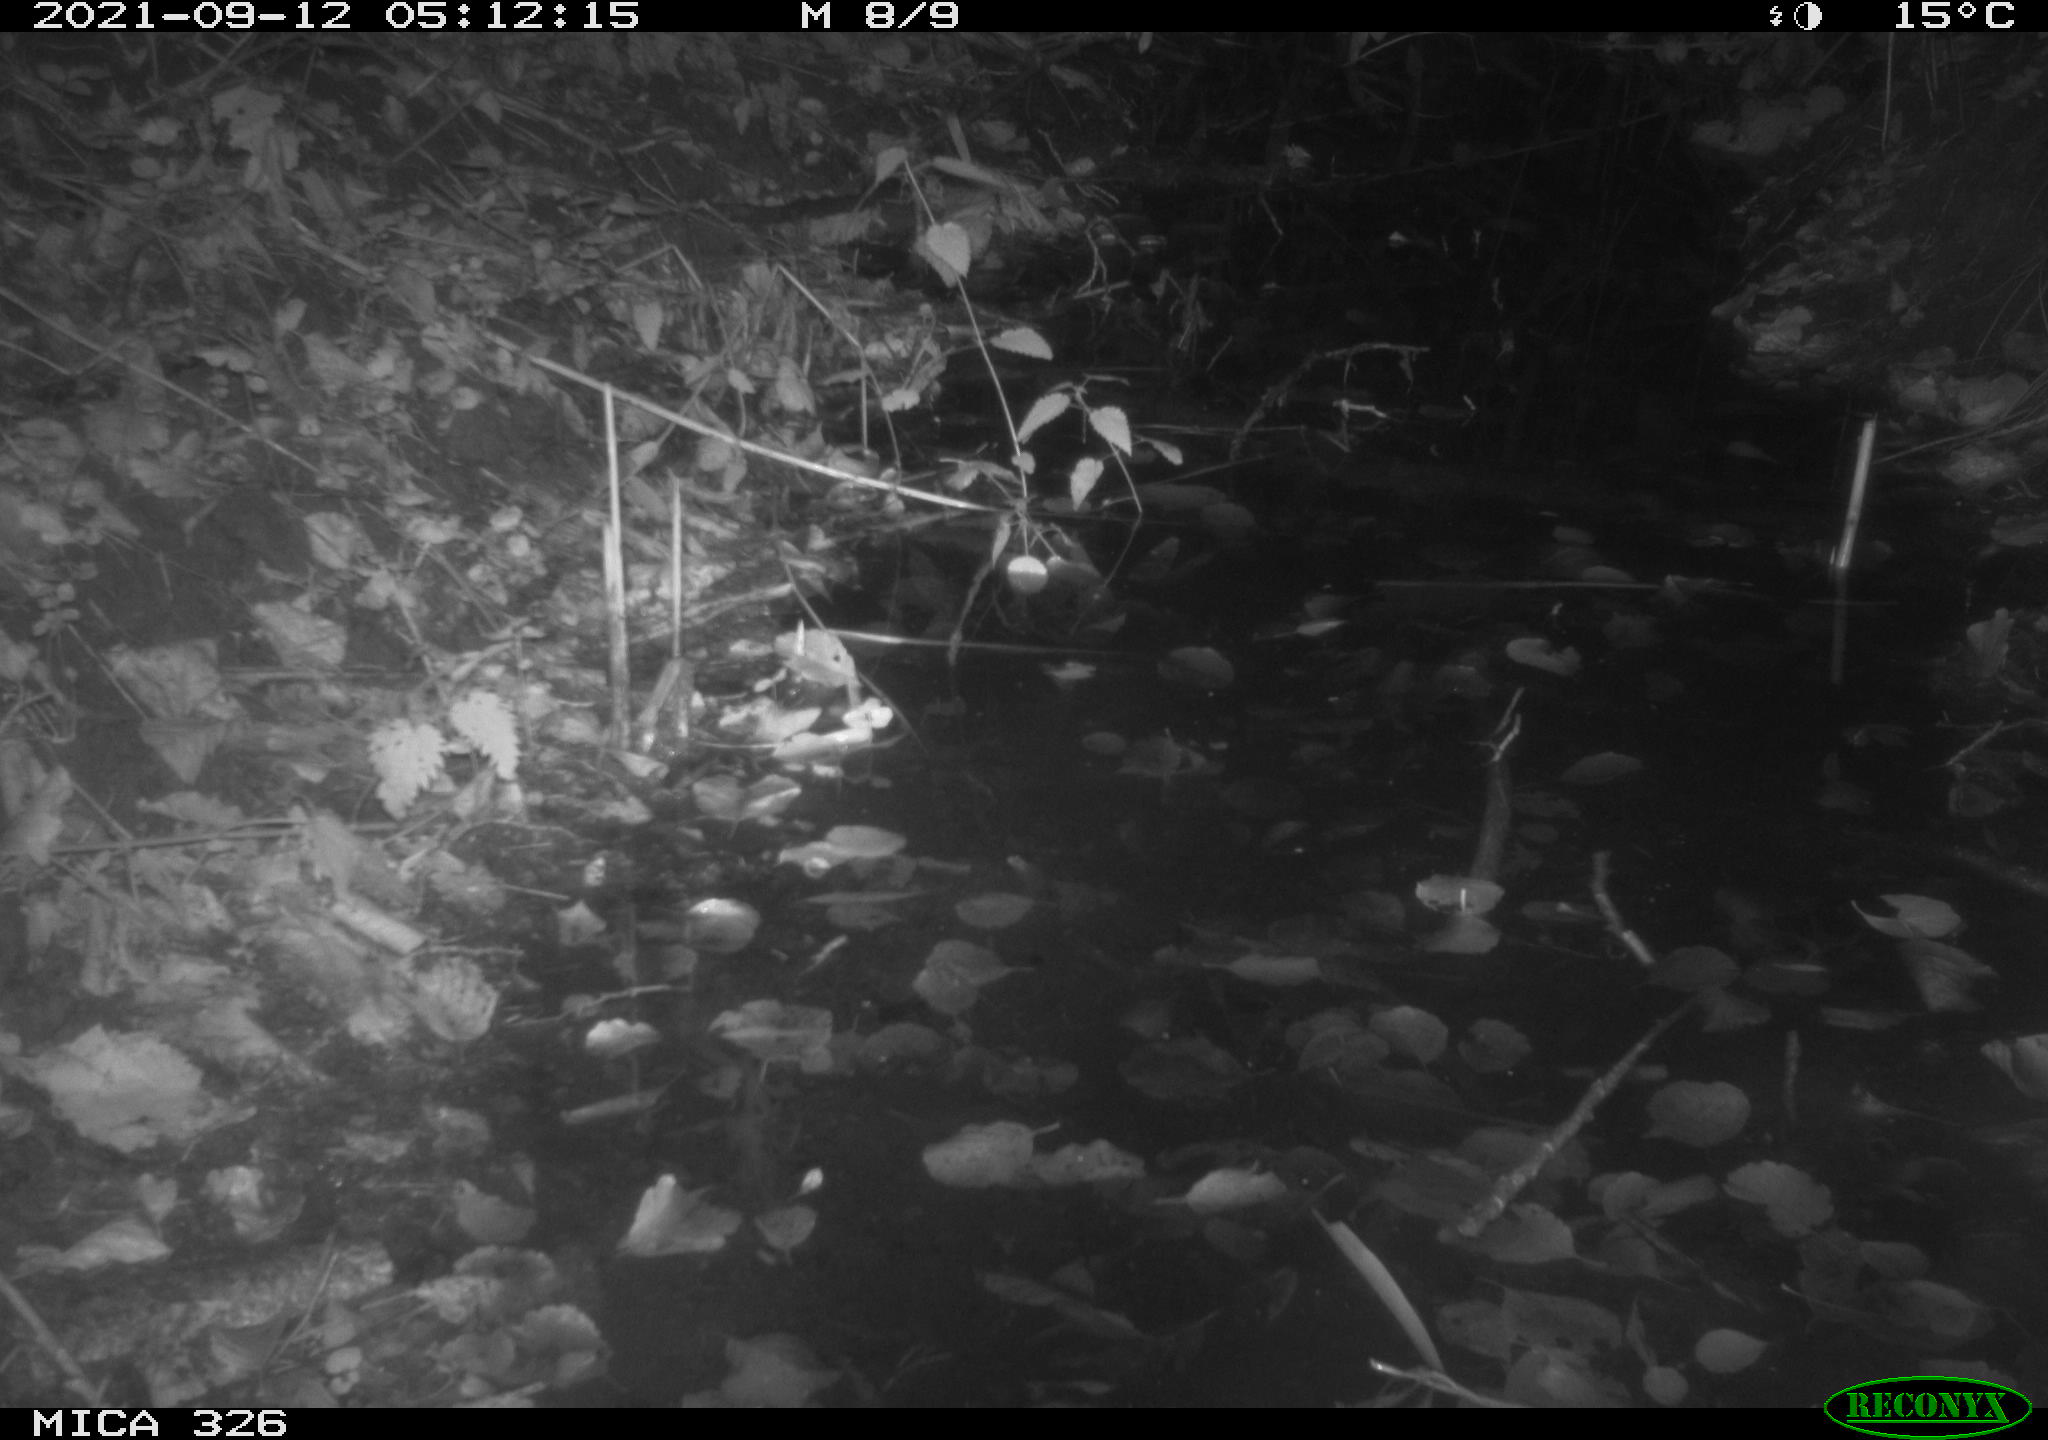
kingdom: Animalia
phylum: Chordata
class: Mammalia
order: Rodentia
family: Muridae
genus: Rattus
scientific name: Rattus norvegicus
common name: Brown rat
